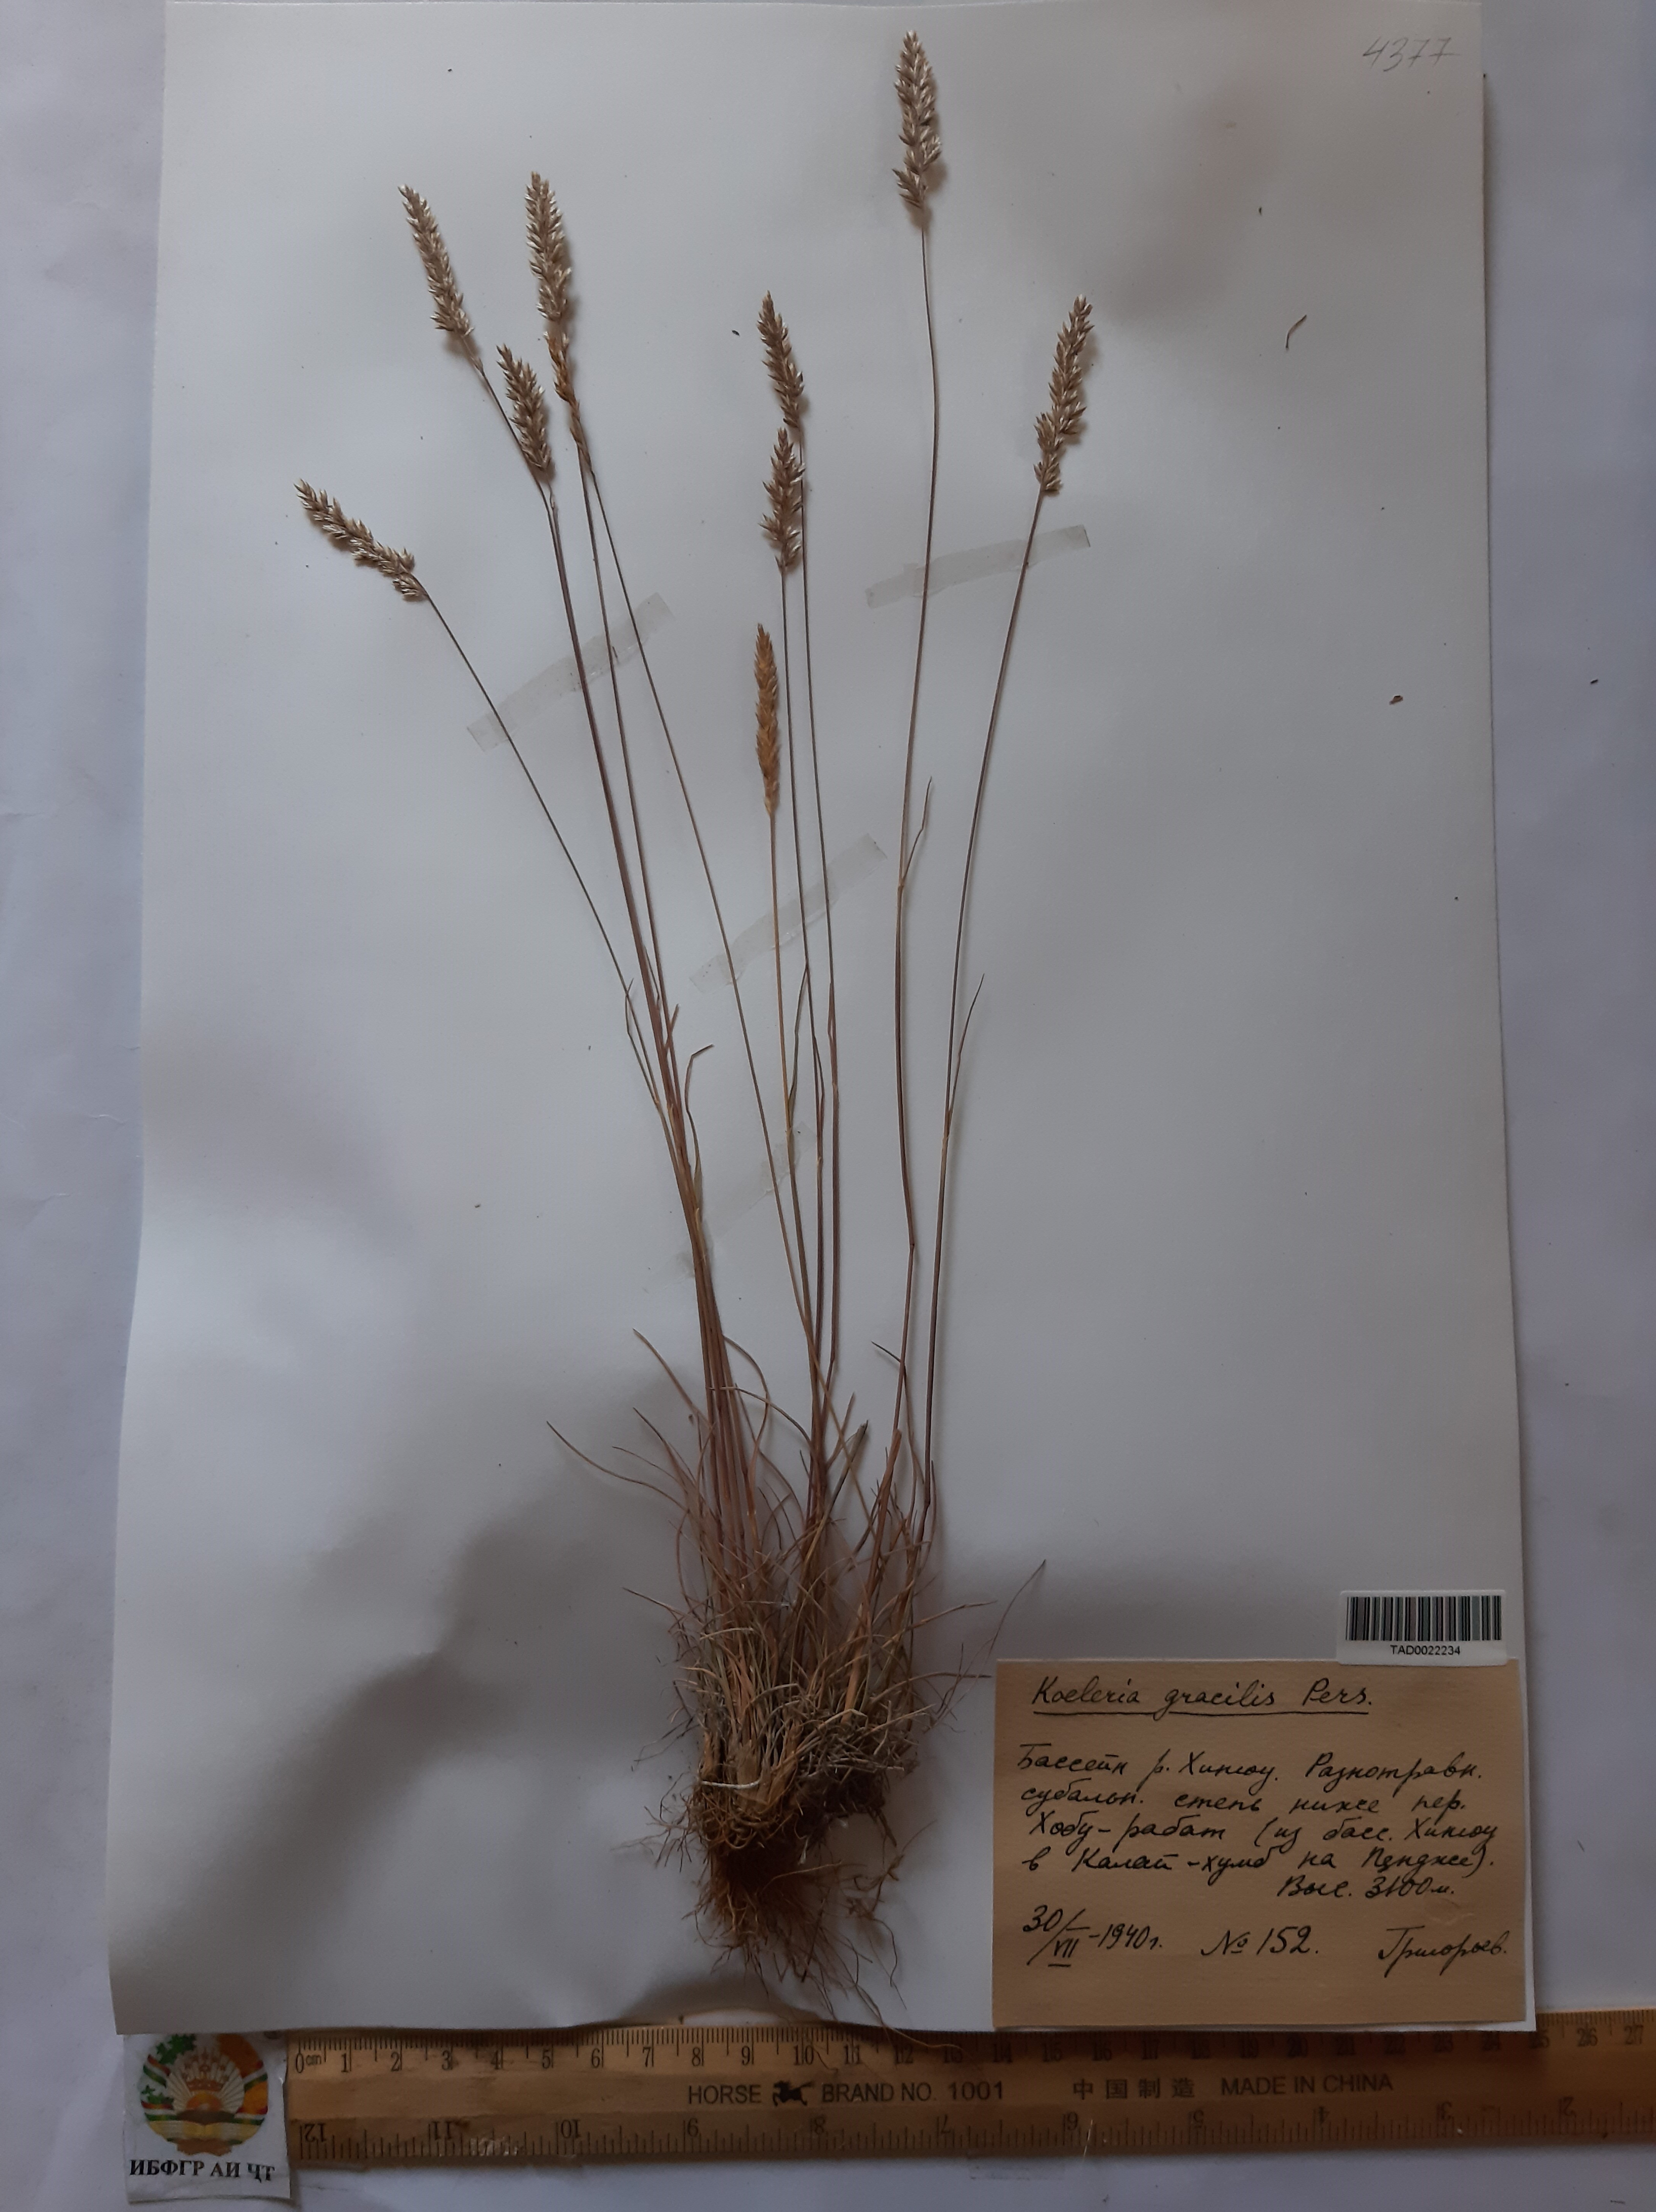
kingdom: Plantae
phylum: Tracheophyta
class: Liliopsida
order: Poales
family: Poaceae
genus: Koeleria
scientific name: Koeleria macrantha
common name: Crested hair-grass
